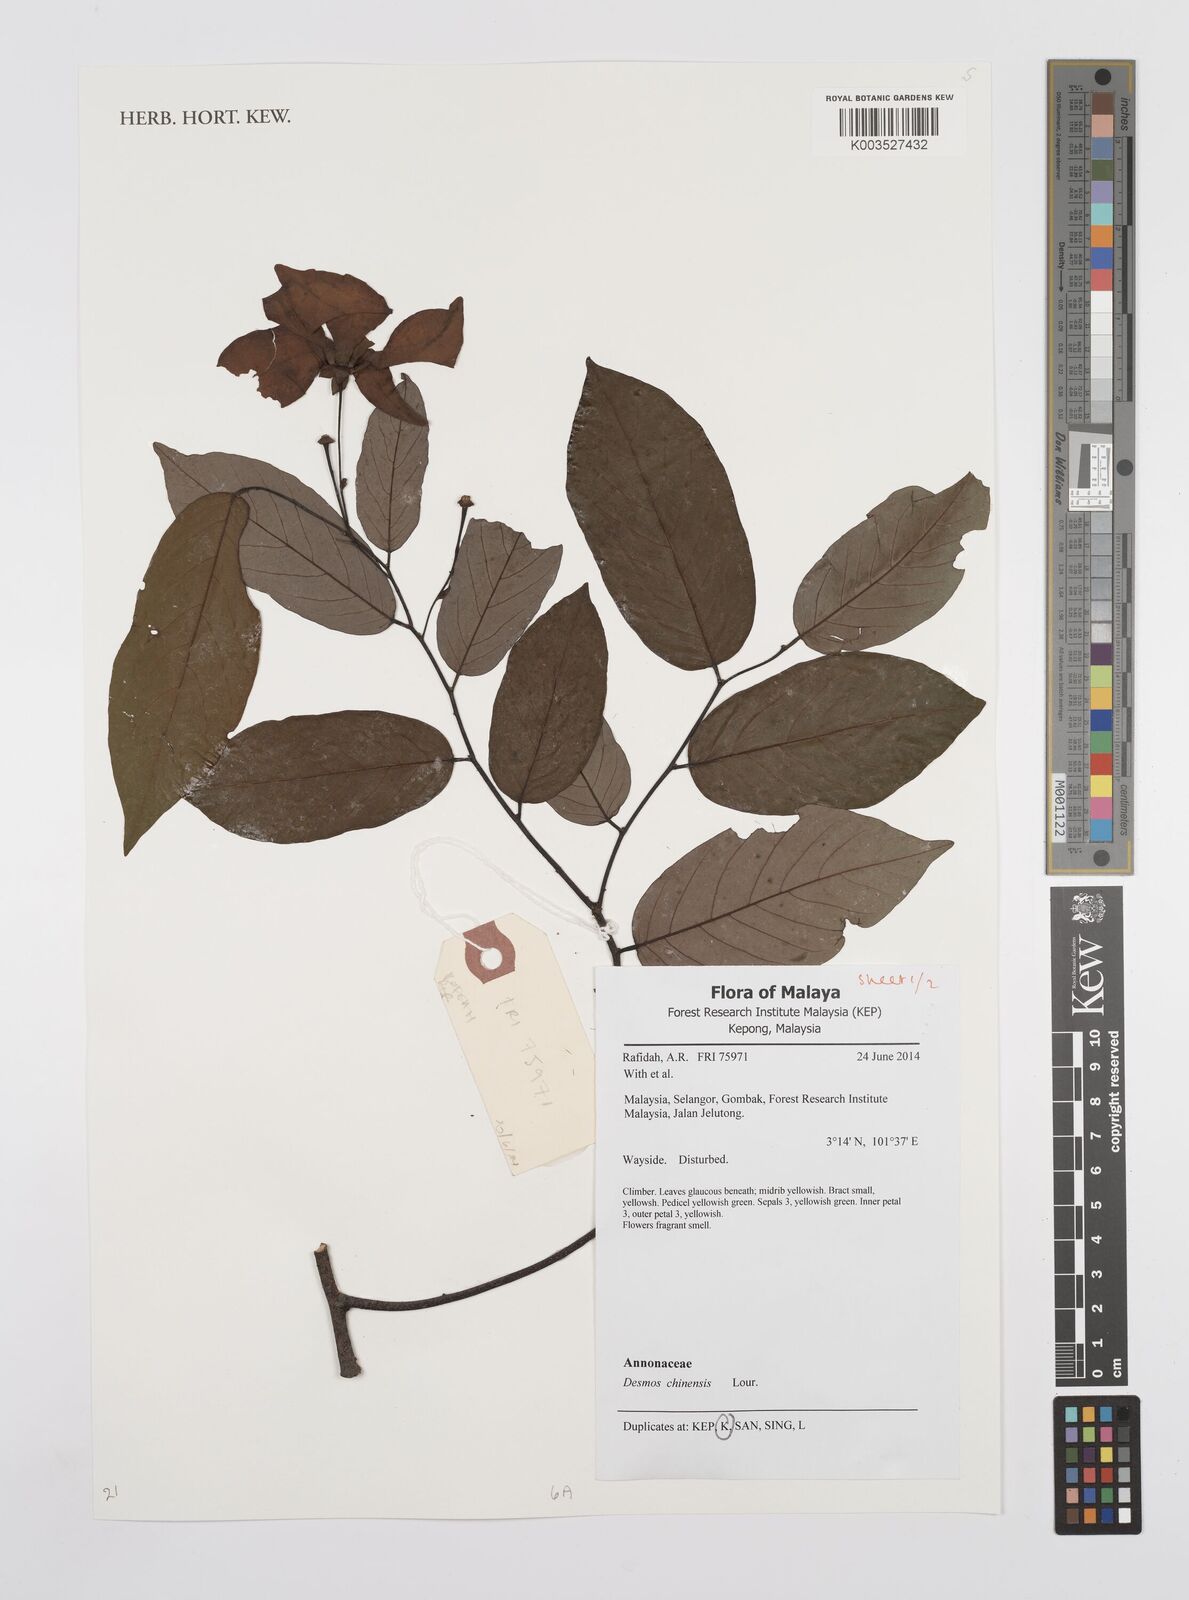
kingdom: Plantae
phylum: Tracheophyta
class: Magnoliopsida
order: Magnoliales
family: Annonaceae
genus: Desmos
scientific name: Desmos chinensis
